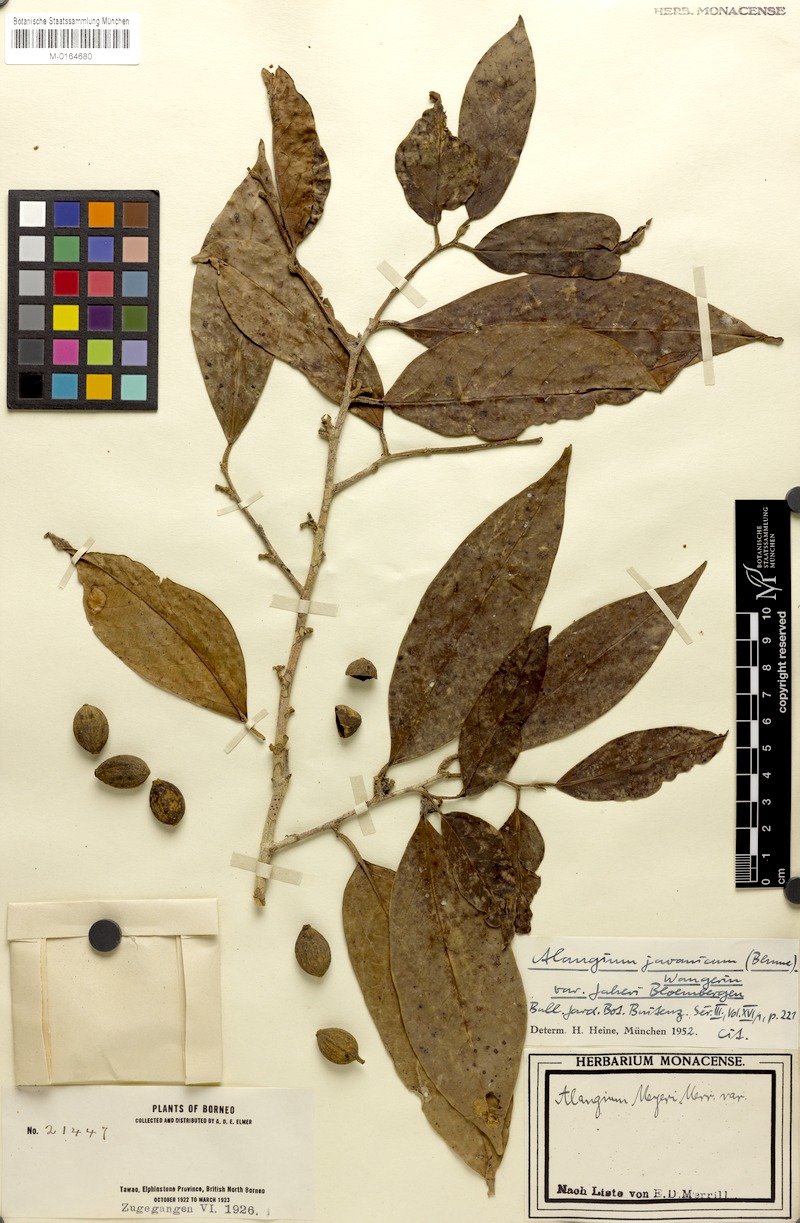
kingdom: Plantae
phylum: Tracheophyta
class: Magnoliopsida
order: Cornales
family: Cornaceae
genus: Alangium
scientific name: Alangium minahassicum
